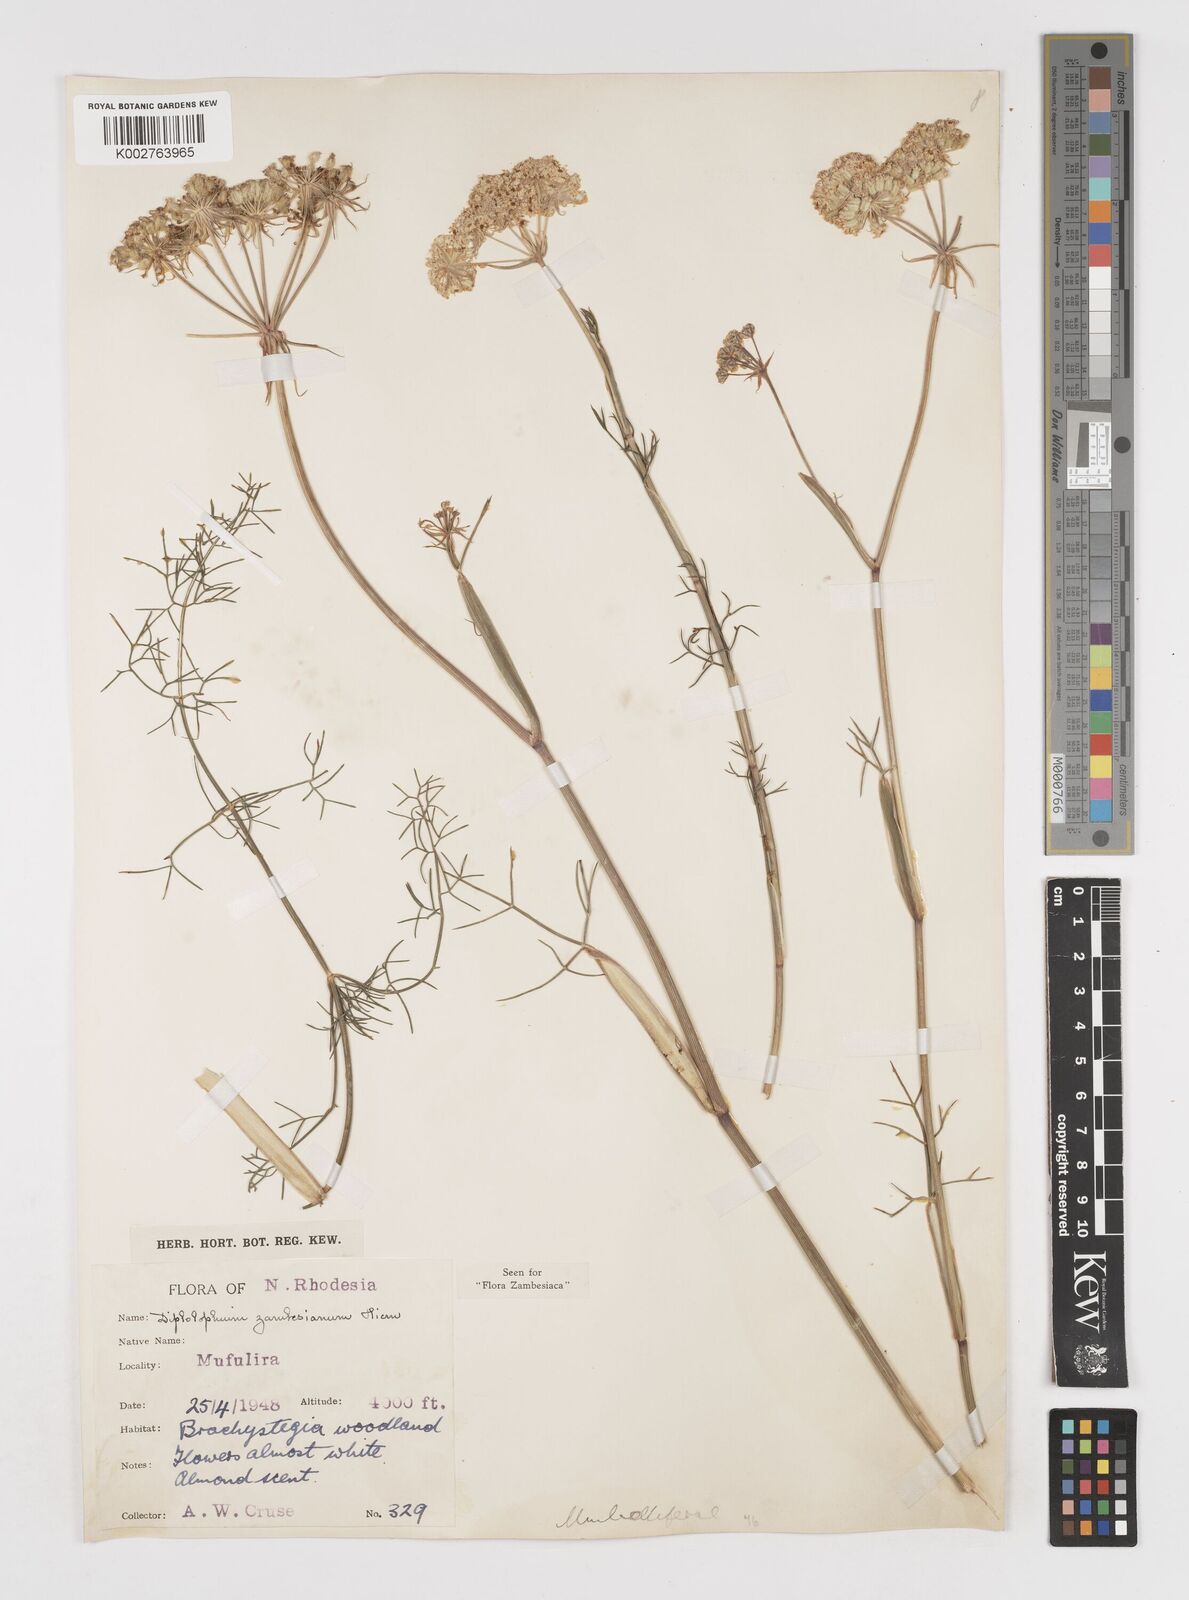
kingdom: Plantae
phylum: Tracheophyta
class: Magnoliopsida
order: Apiales
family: Apiaceae
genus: Diplolophium
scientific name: Diplolophium zambesianum
